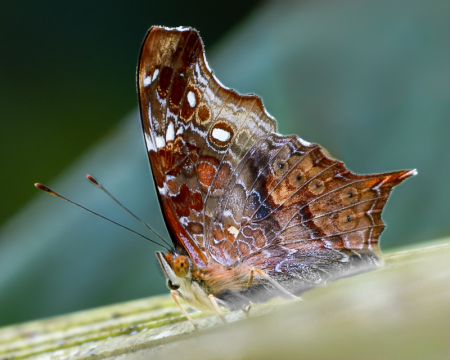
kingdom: Animalia
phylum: Arthropoda
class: Insecta
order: Lepidoptera
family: Nymphalidae
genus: Hypanartia
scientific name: Hypanartia kefersteini
